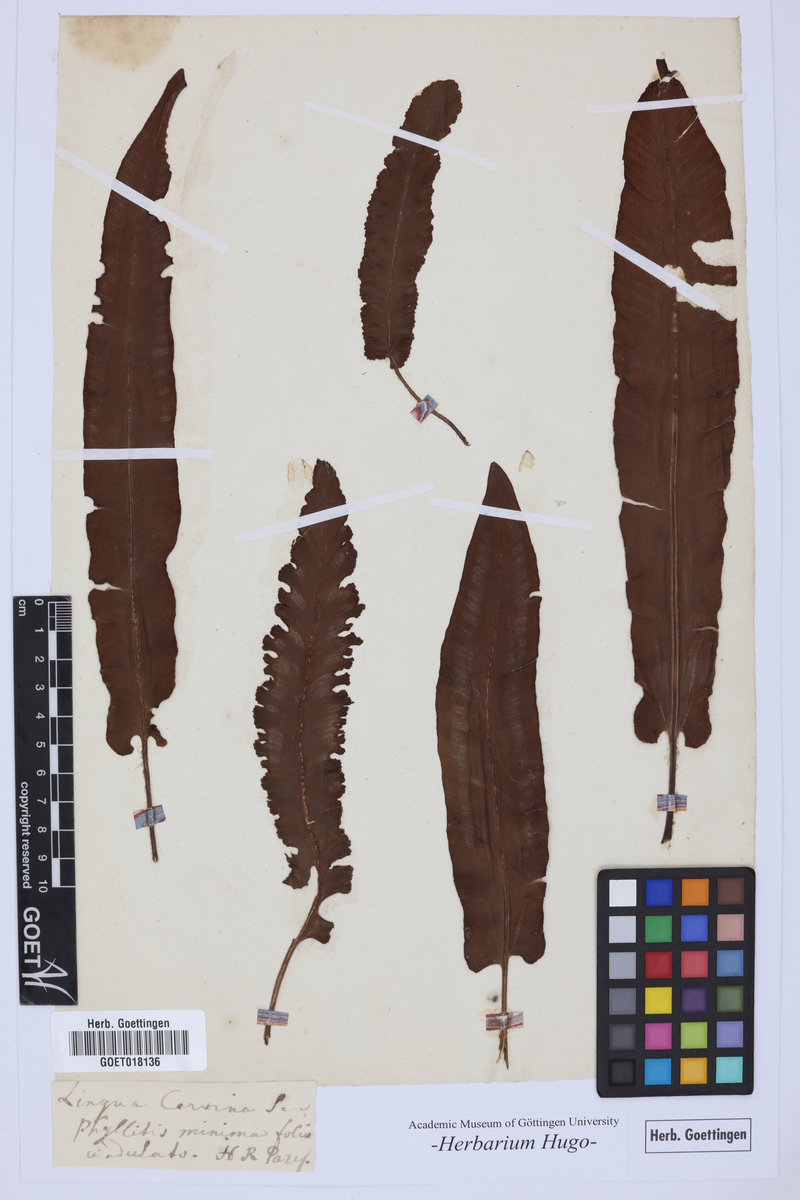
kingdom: Plantae
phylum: Tracheophyta
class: Polypodiopsida
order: Polypodiales
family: Aspleniaceae
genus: Asplenium
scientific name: Asplenium scolopendrium
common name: Hart's-tongue fern
